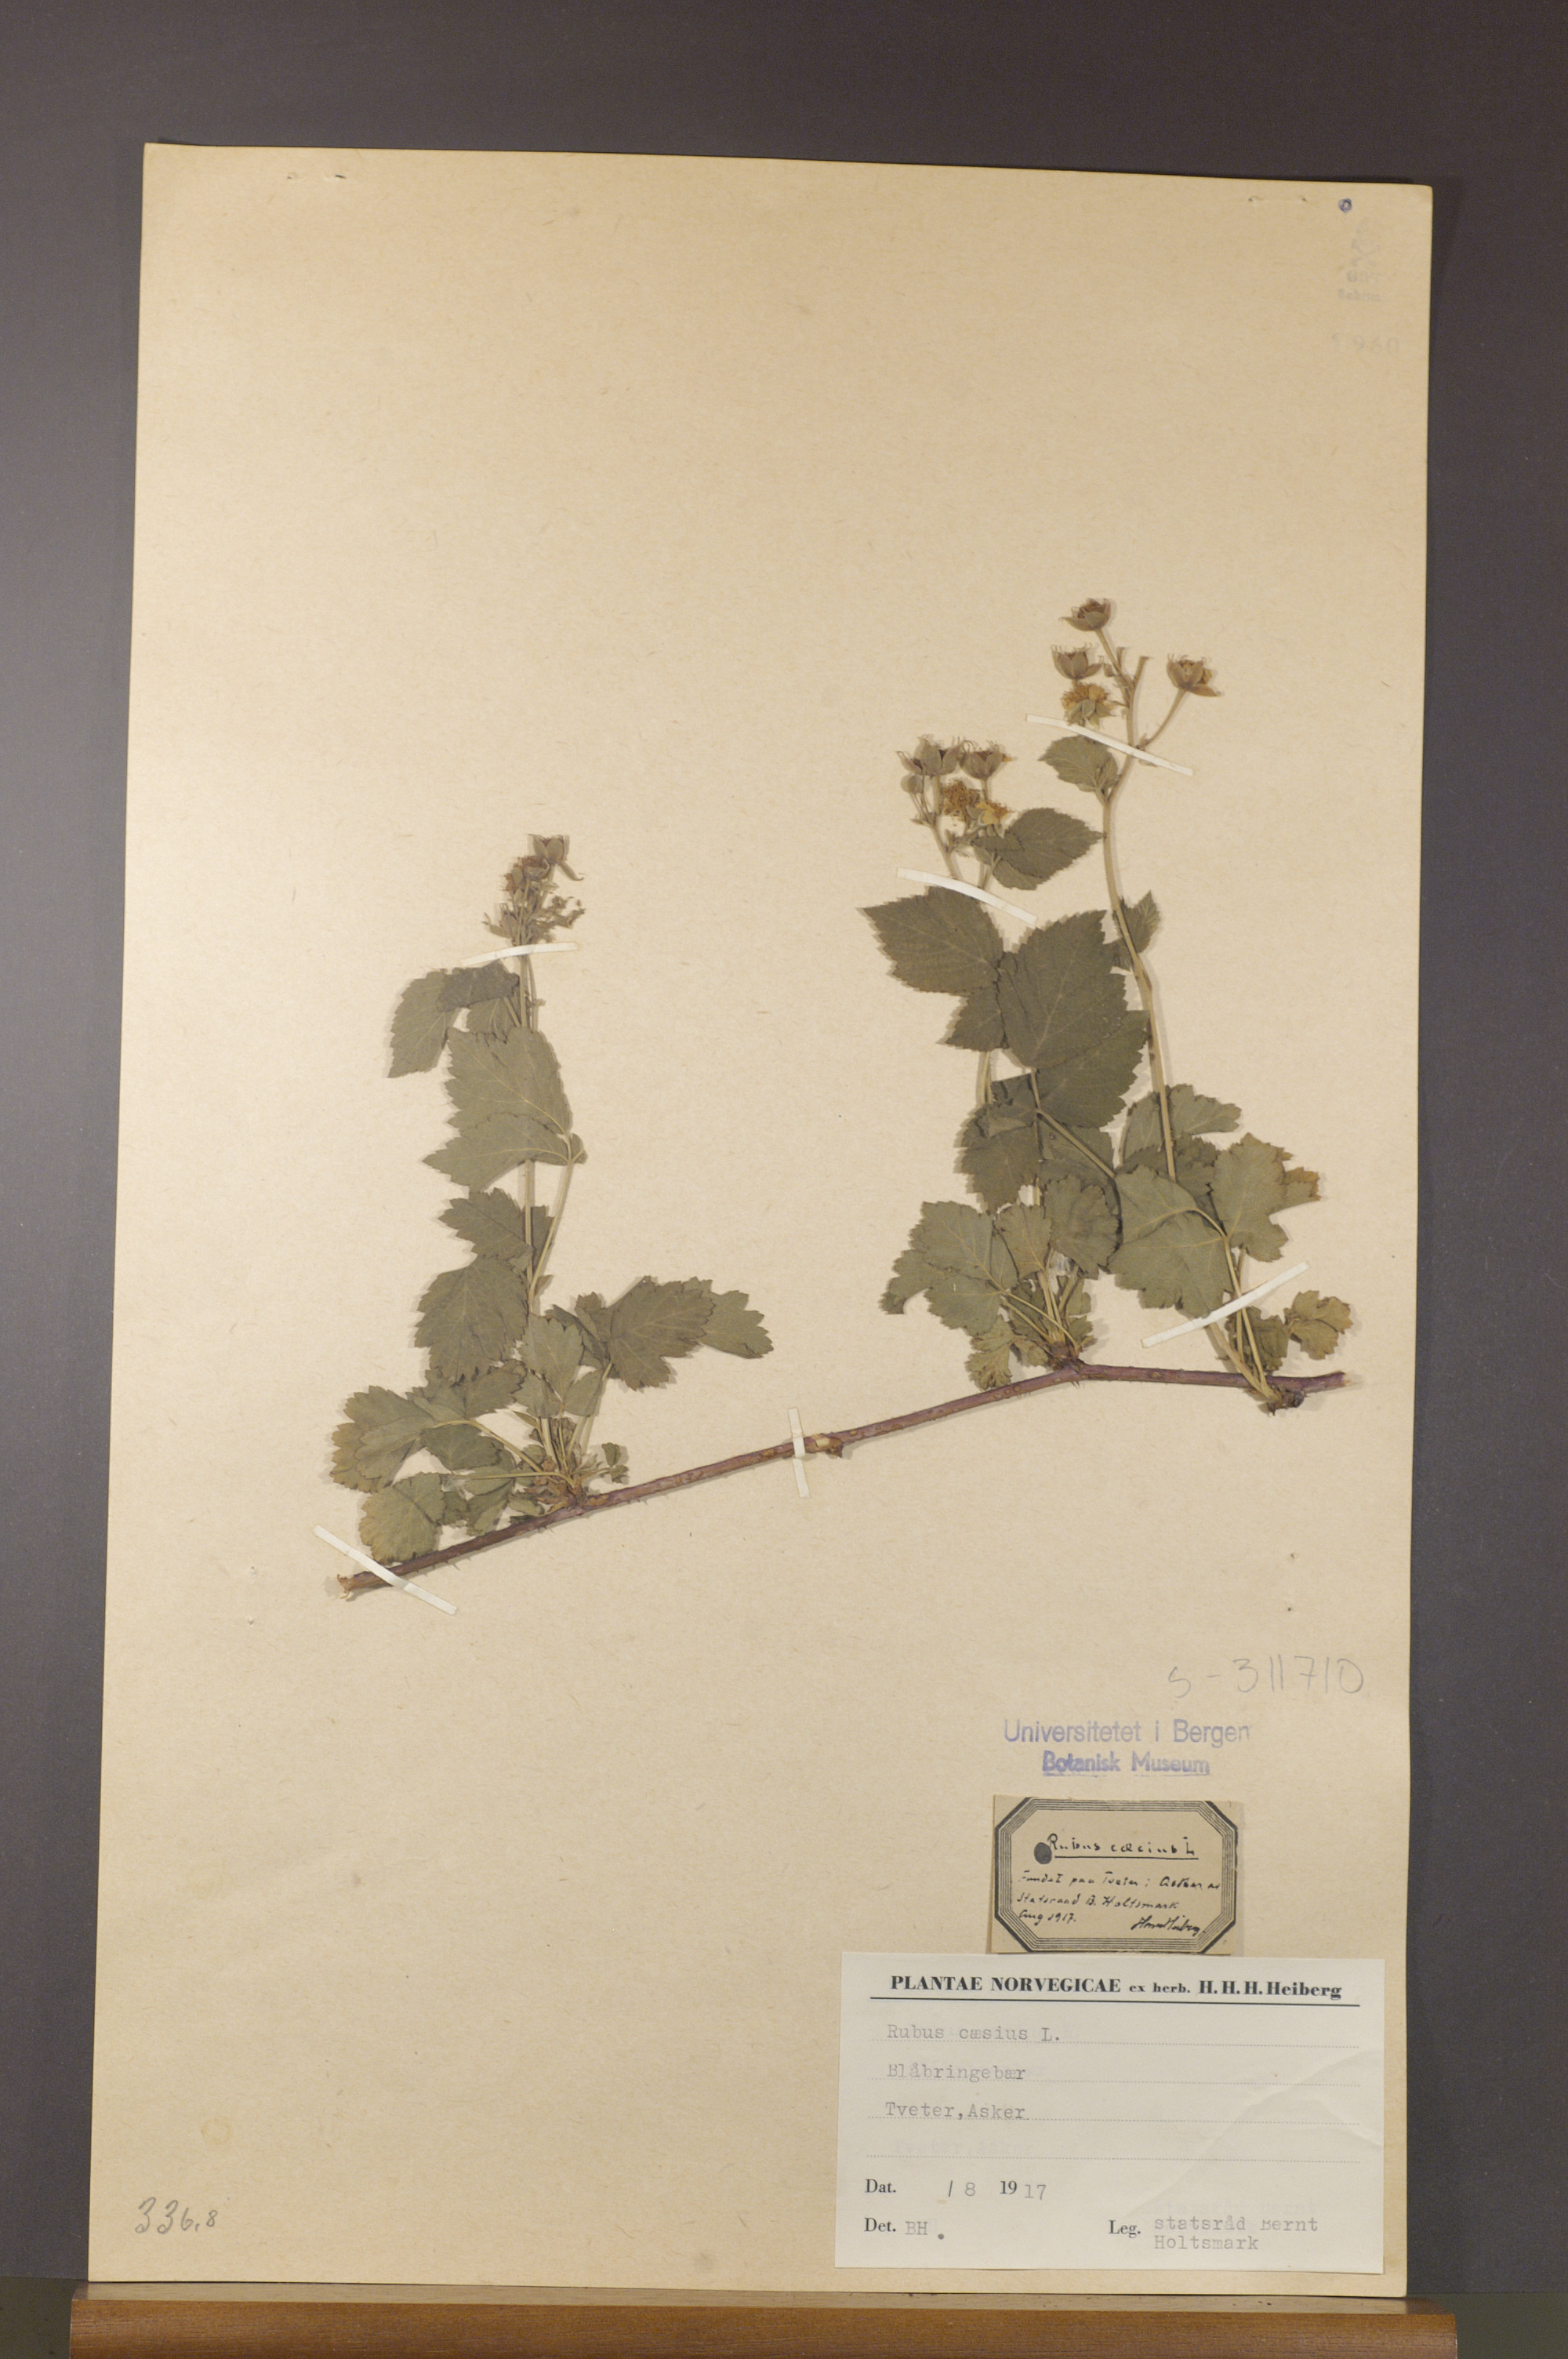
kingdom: Plantae
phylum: Tracheophyta
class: Magnoliopsida
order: Rosales
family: Rosaceae
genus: Rubus
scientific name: Rubus caesius
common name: Dewberry
